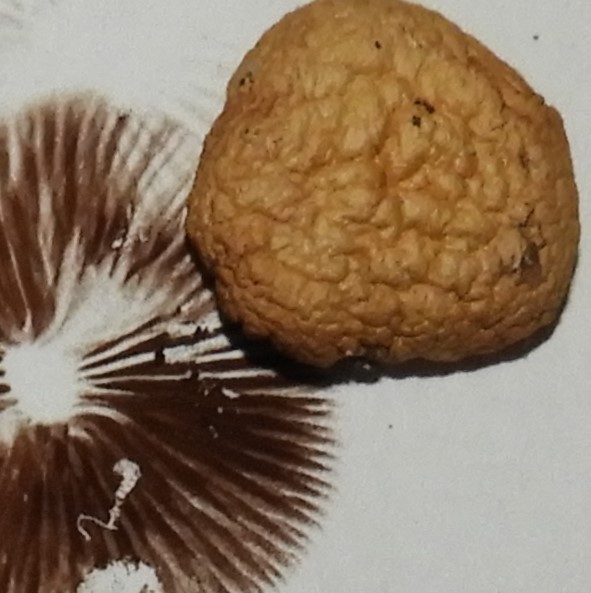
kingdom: Fungi
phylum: Basidiomycota
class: Agaricomycetes
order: Agaricales
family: Strophariaceae
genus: Agrocybe
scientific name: Agrocybe pediades
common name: almindelig agerhat
